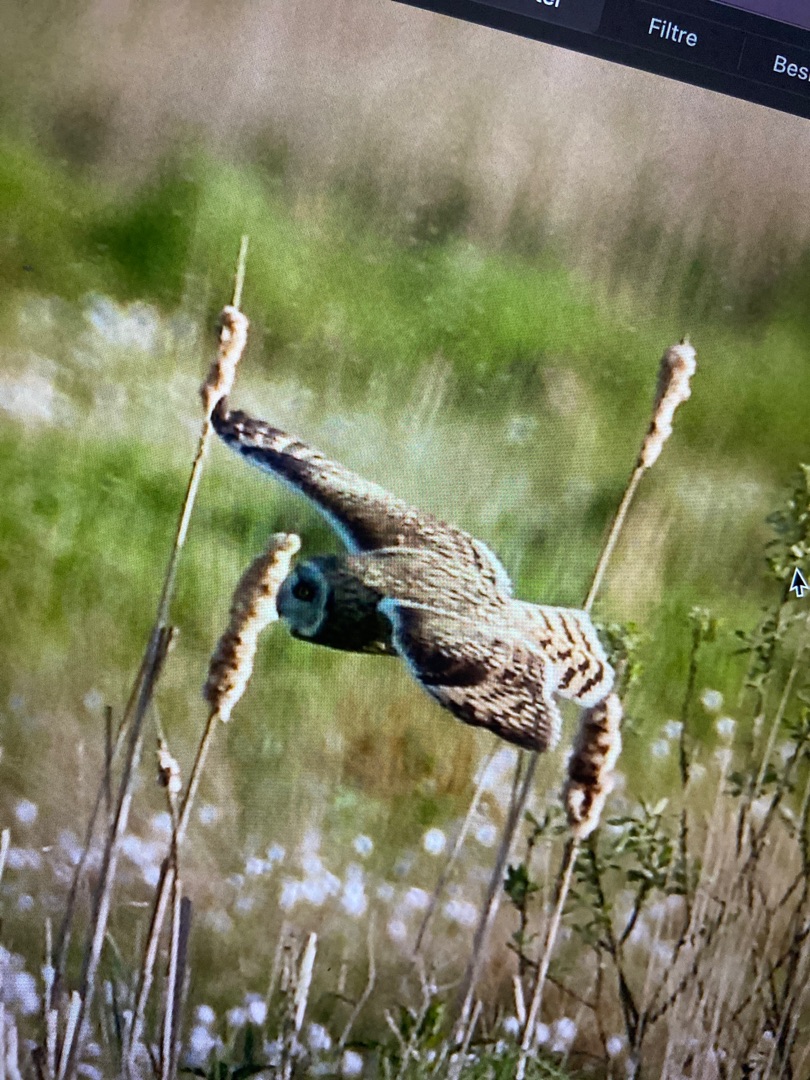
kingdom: Animalia
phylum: Chordata
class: Aves
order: Strigiformes
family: Strigidae
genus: Asio
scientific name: Asio flammeus
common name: Mosehornugle
